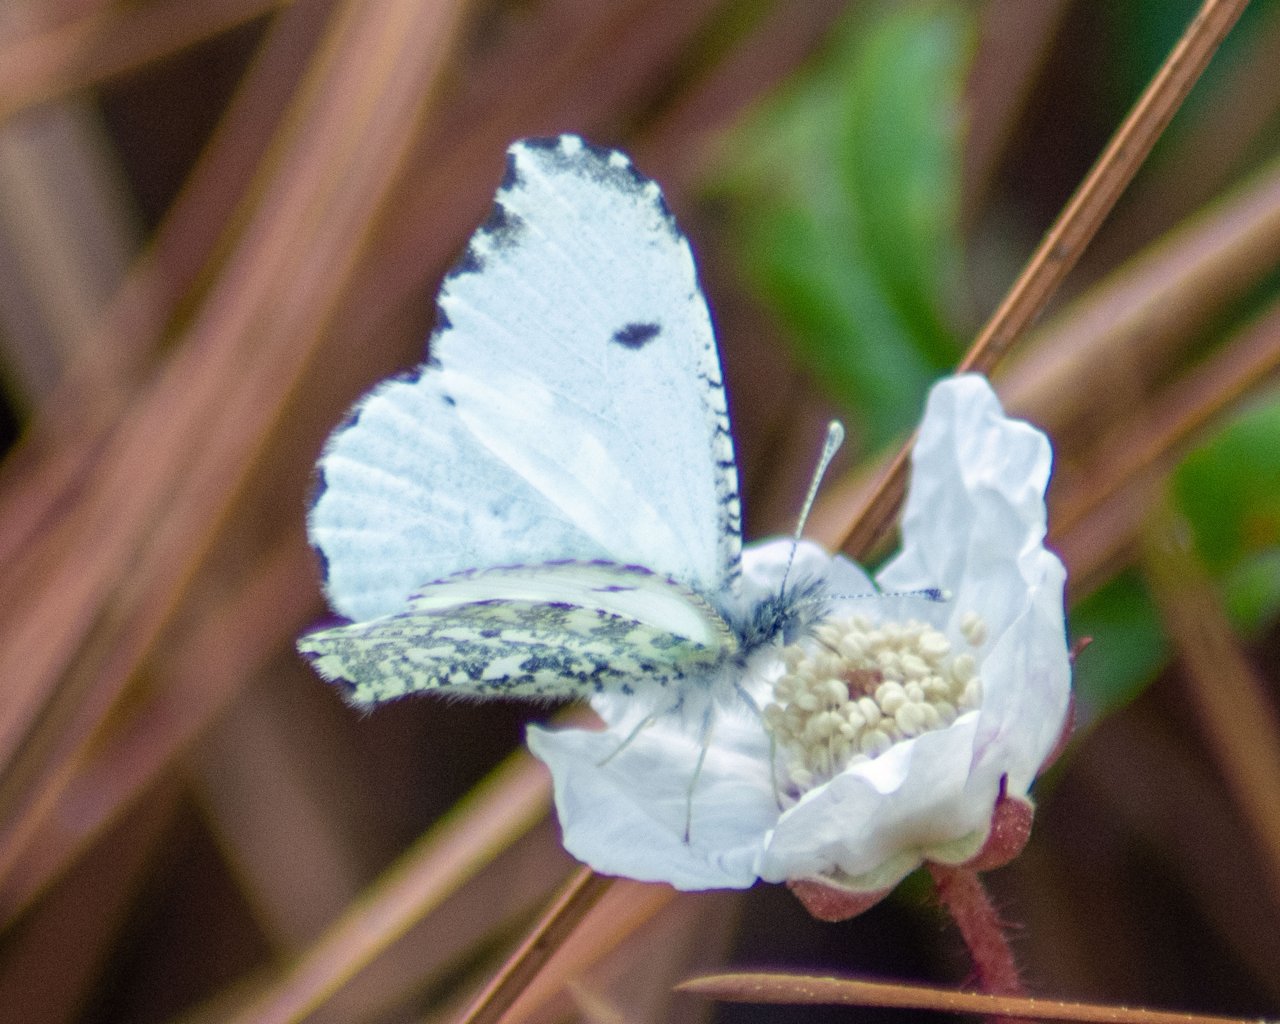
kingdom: Animalia
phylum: Arthropoda
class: Insecta
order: Lepidoptera
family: Pieridae
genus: Anthocharis
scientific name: Anthocharis midea
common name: Falcate Orangetip
